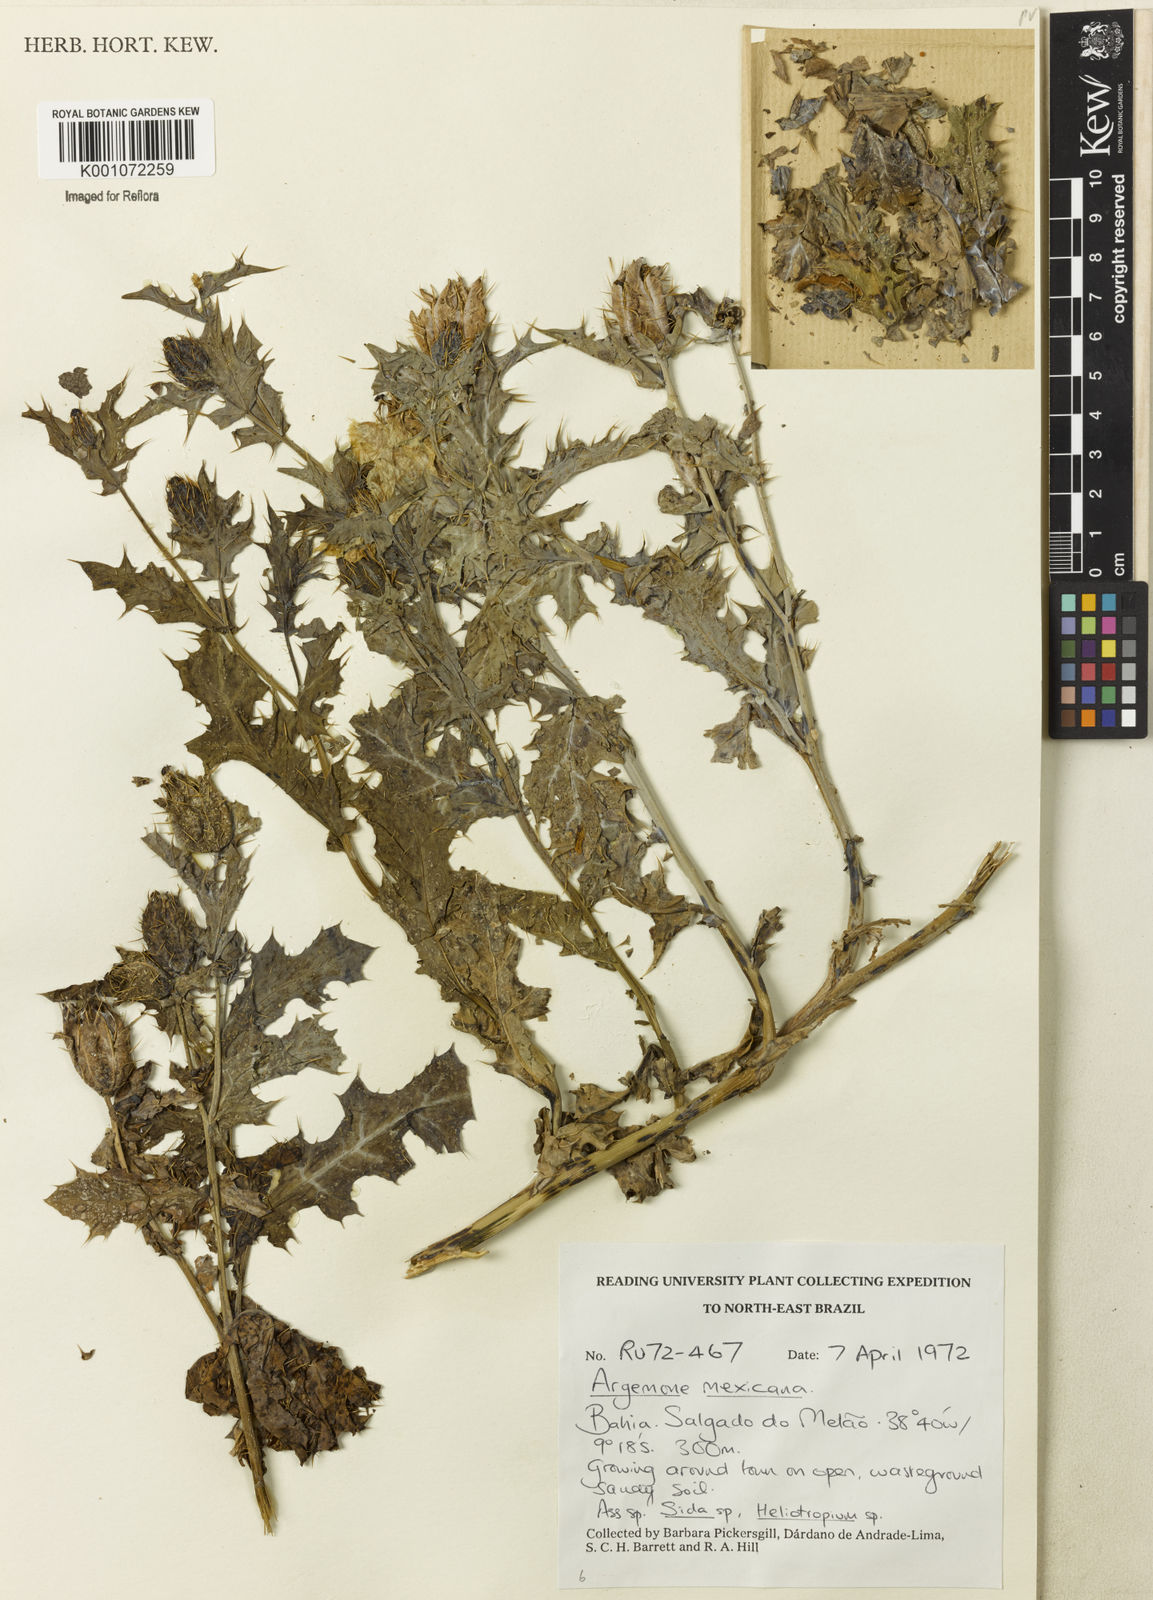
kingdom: Plantae
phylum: Tracheophyta
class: Magnoliopsida
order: Ranunculales
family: Papaveraceae
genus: Argemone
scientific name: Argemone mexicana
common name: Mexican poppy
